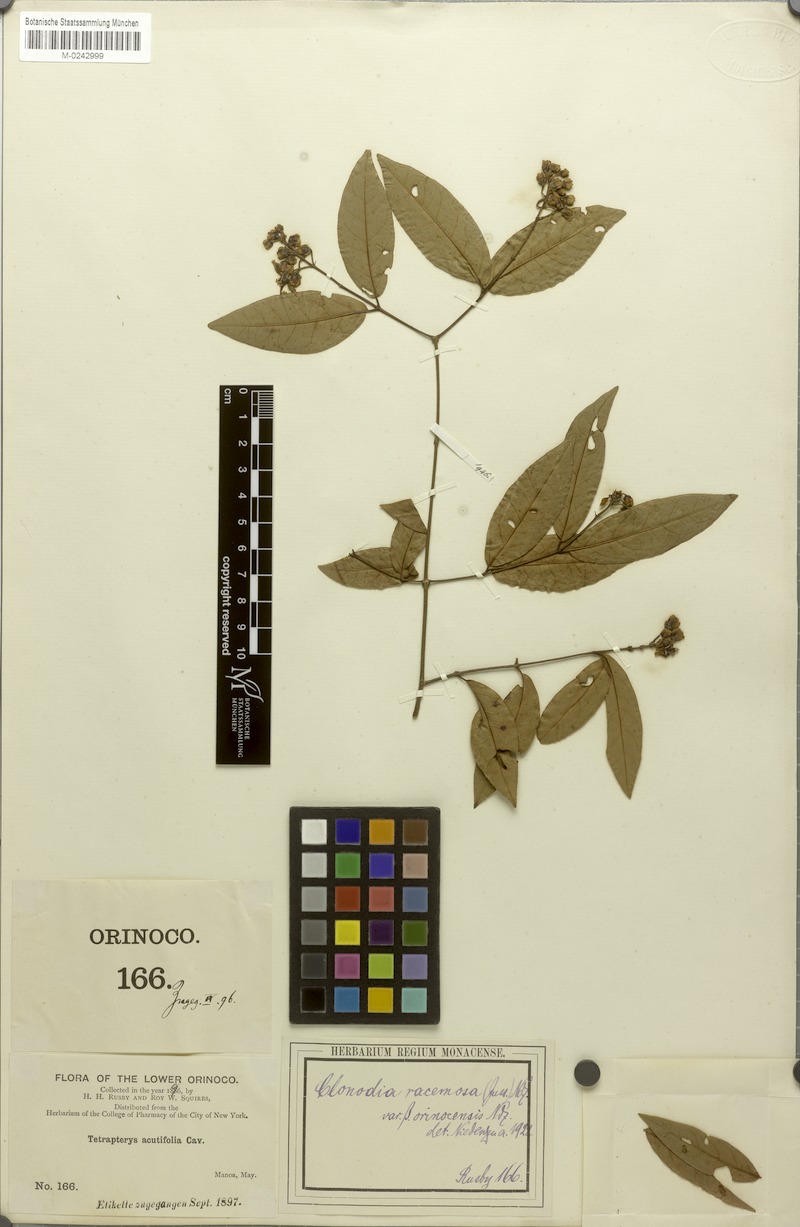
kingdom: Plantae
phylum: Tracheophyta
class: Magnoliopsida
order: Malpighiales
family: Malpighiaceae
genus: Heteropterys
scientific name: Heteropterys complicata
